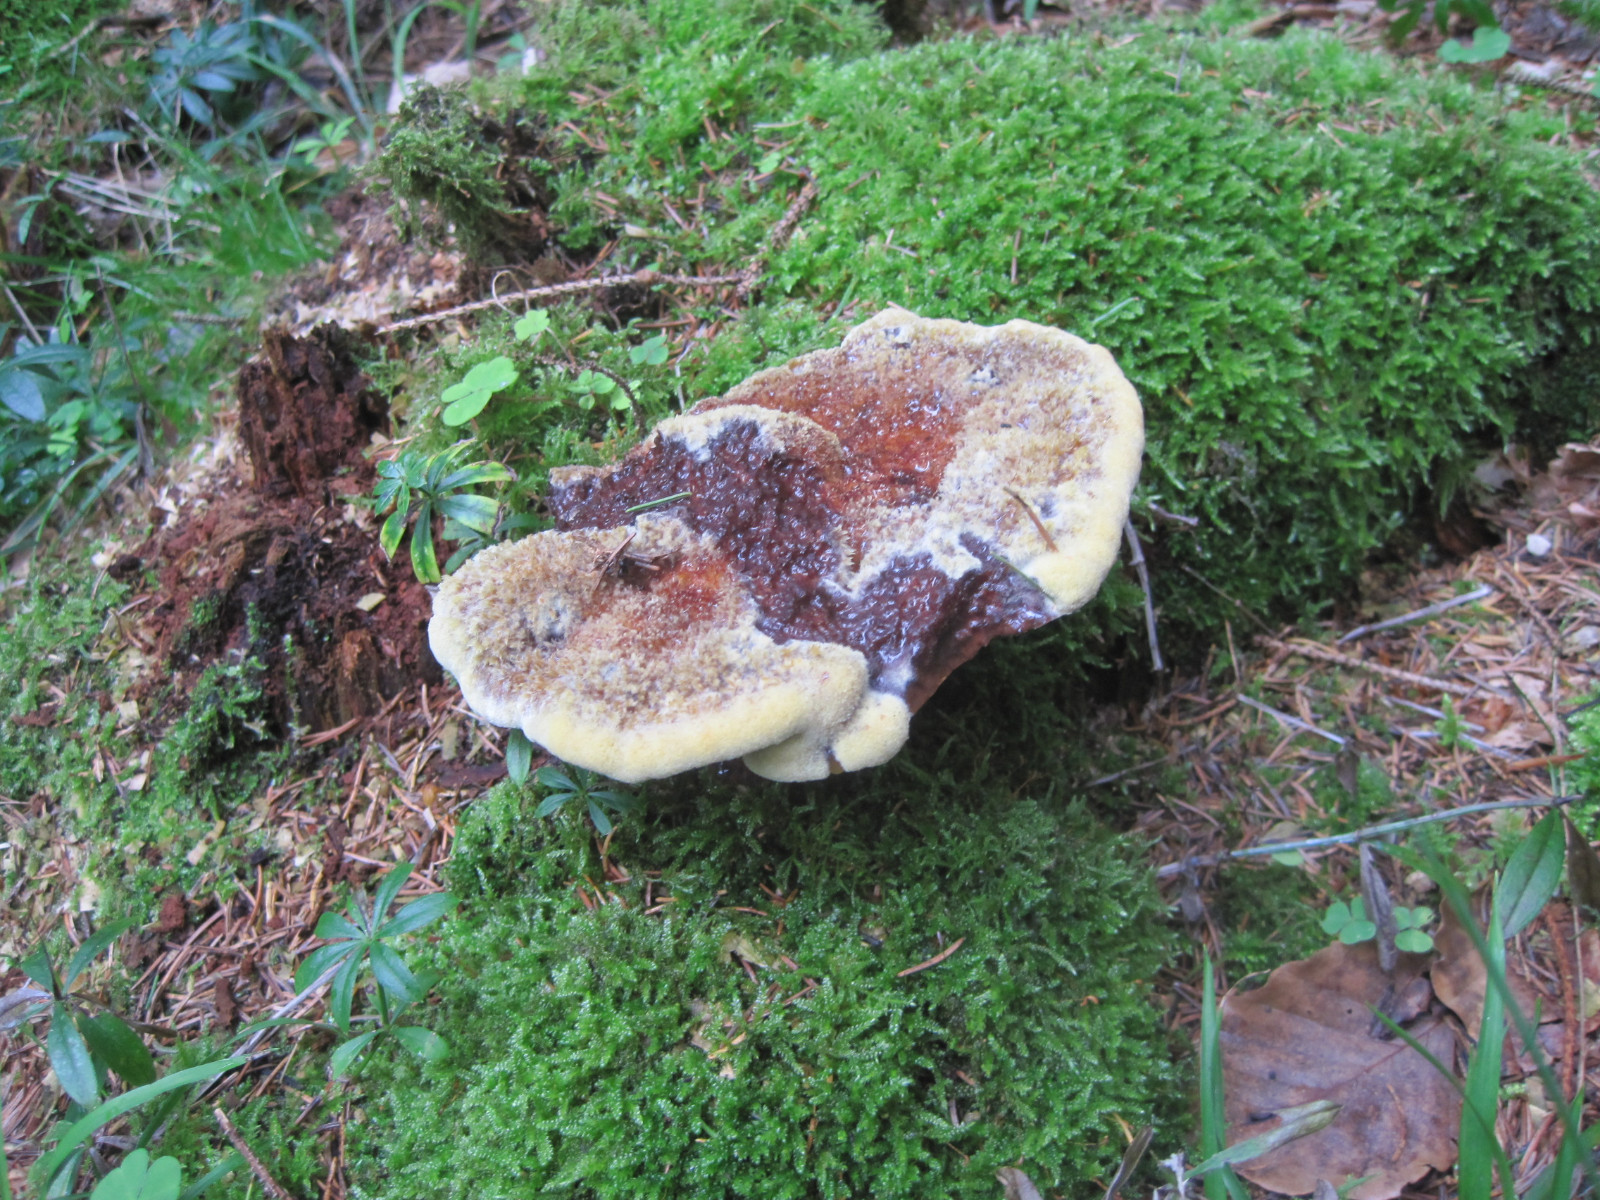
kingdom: Fungi
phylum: Basidiomycota
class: Agaricomycetes
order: Polyporales
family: Laetiporaceae
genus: Phaeolus
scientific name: Phaeolus schweinitzii
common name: brunporesvamp
